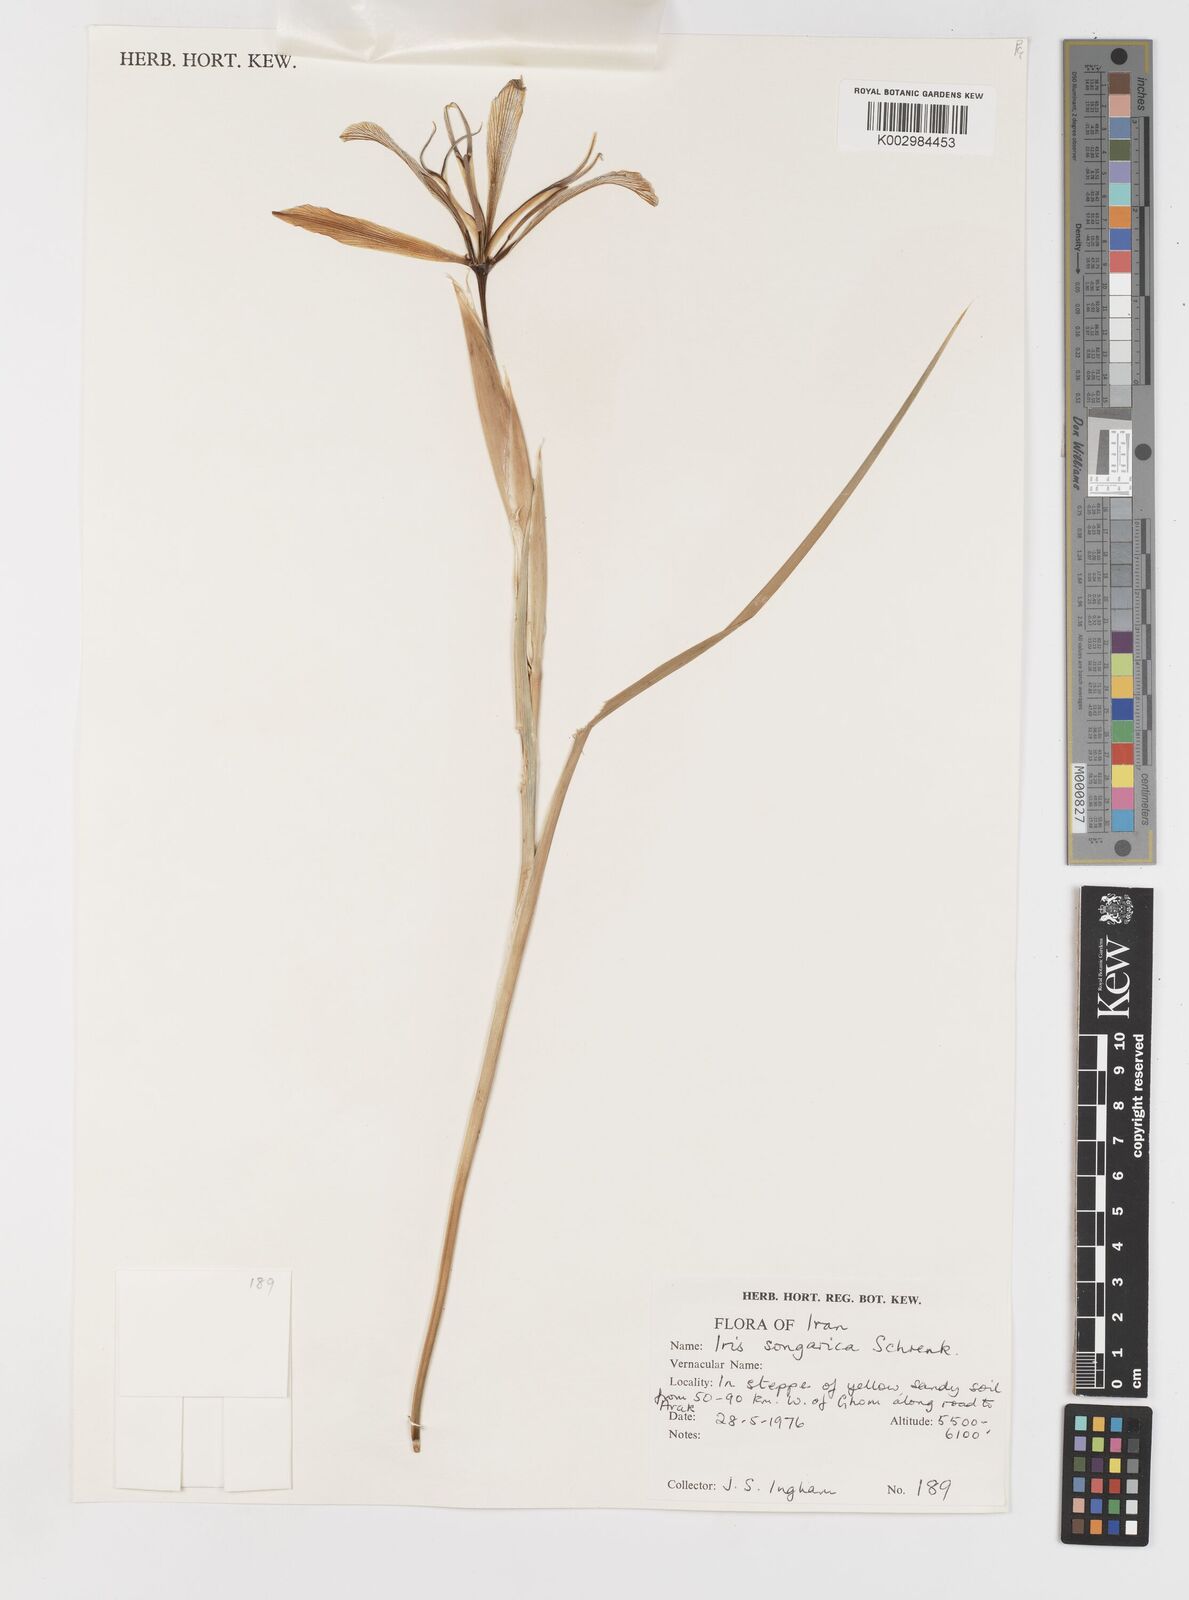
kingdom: Plantae
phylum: Tracheophyta
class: Liliopsida
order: Asparagales
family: Iridaceae
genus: Iris
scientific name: Iris songarica
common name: Songar iris
